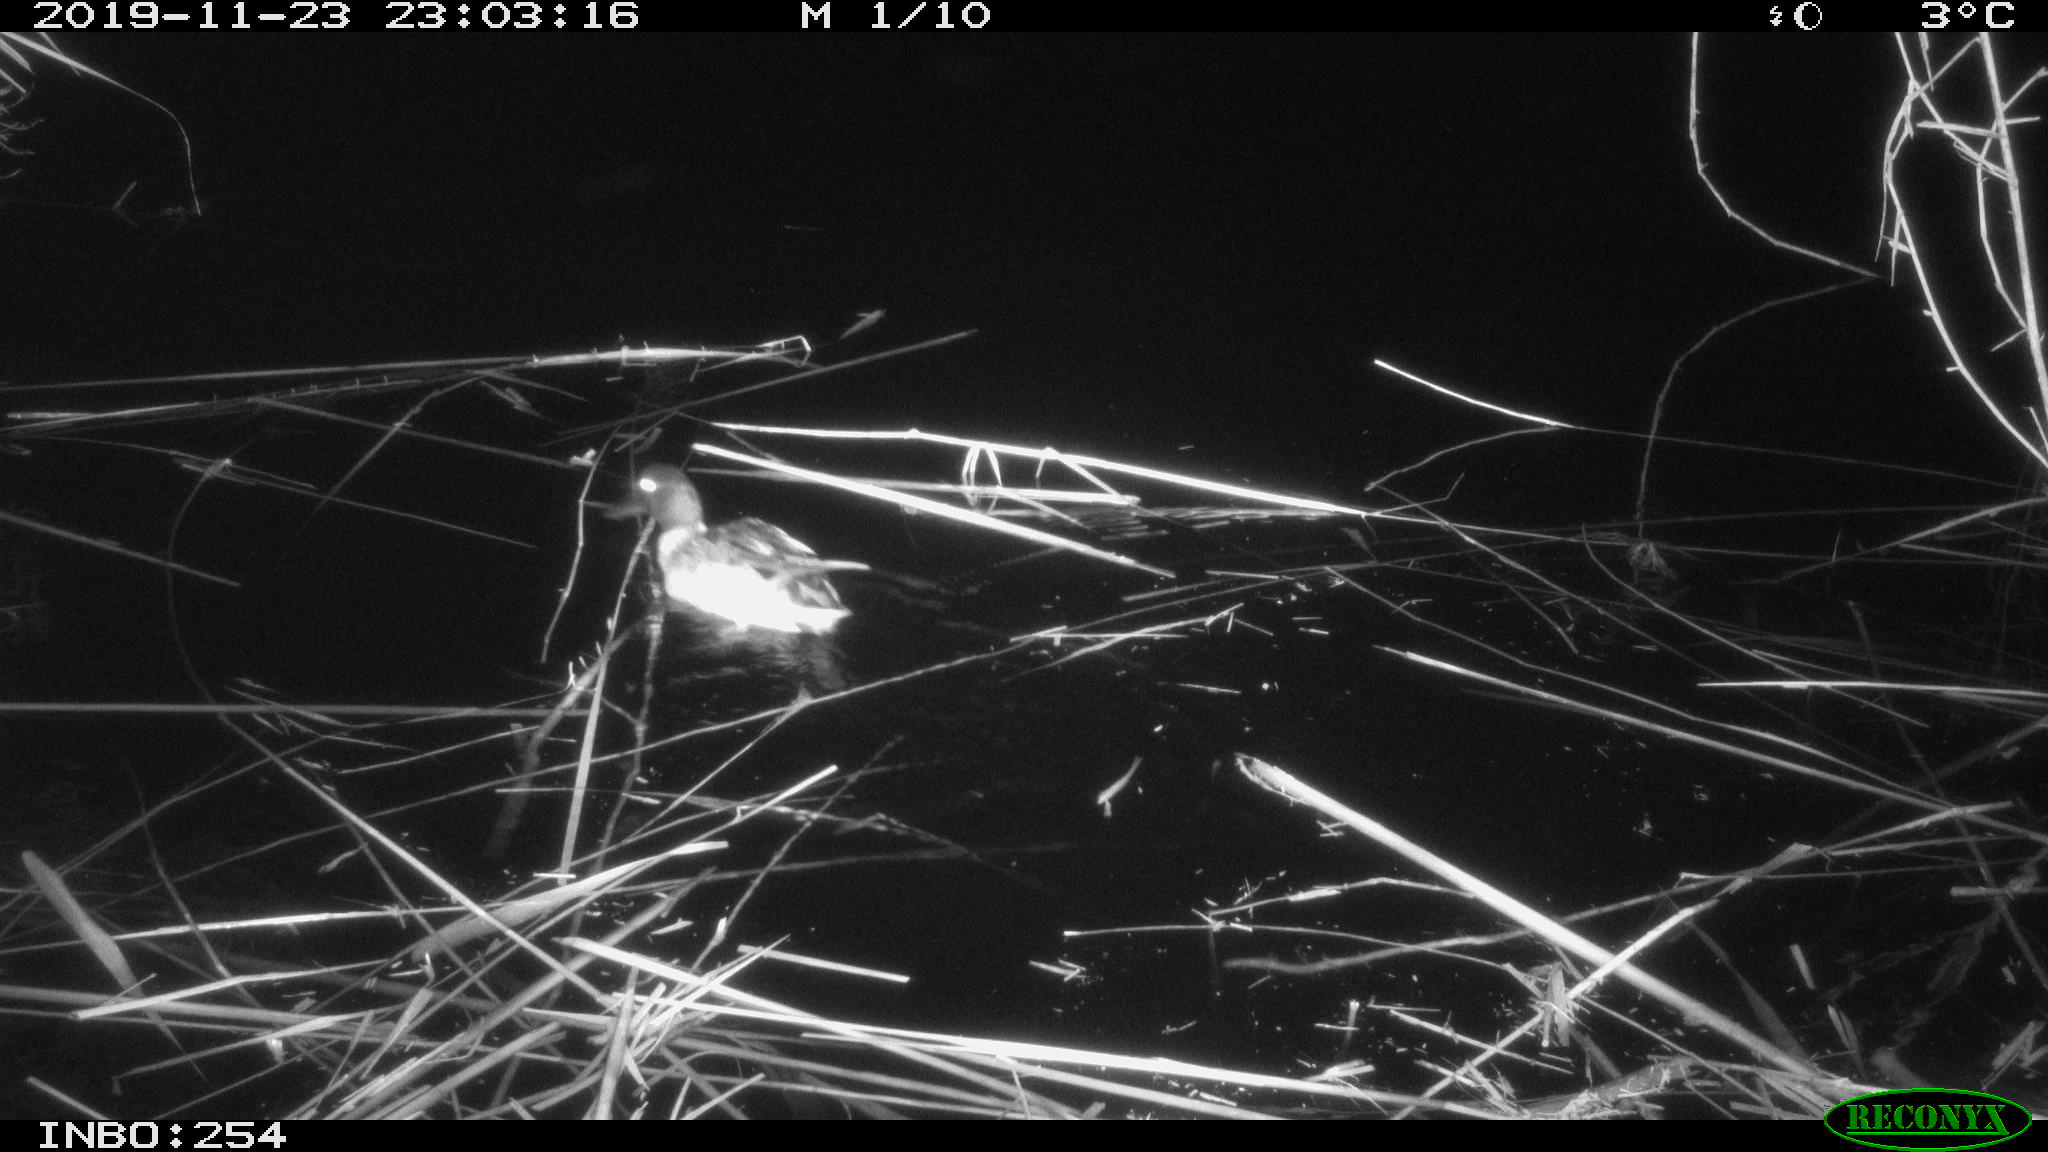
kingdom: Animalia
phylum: Chordata
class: Aves
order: Anseriformes
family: Anatidae
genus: Anas
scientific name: Anas platyrhynchos
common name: Mallard
